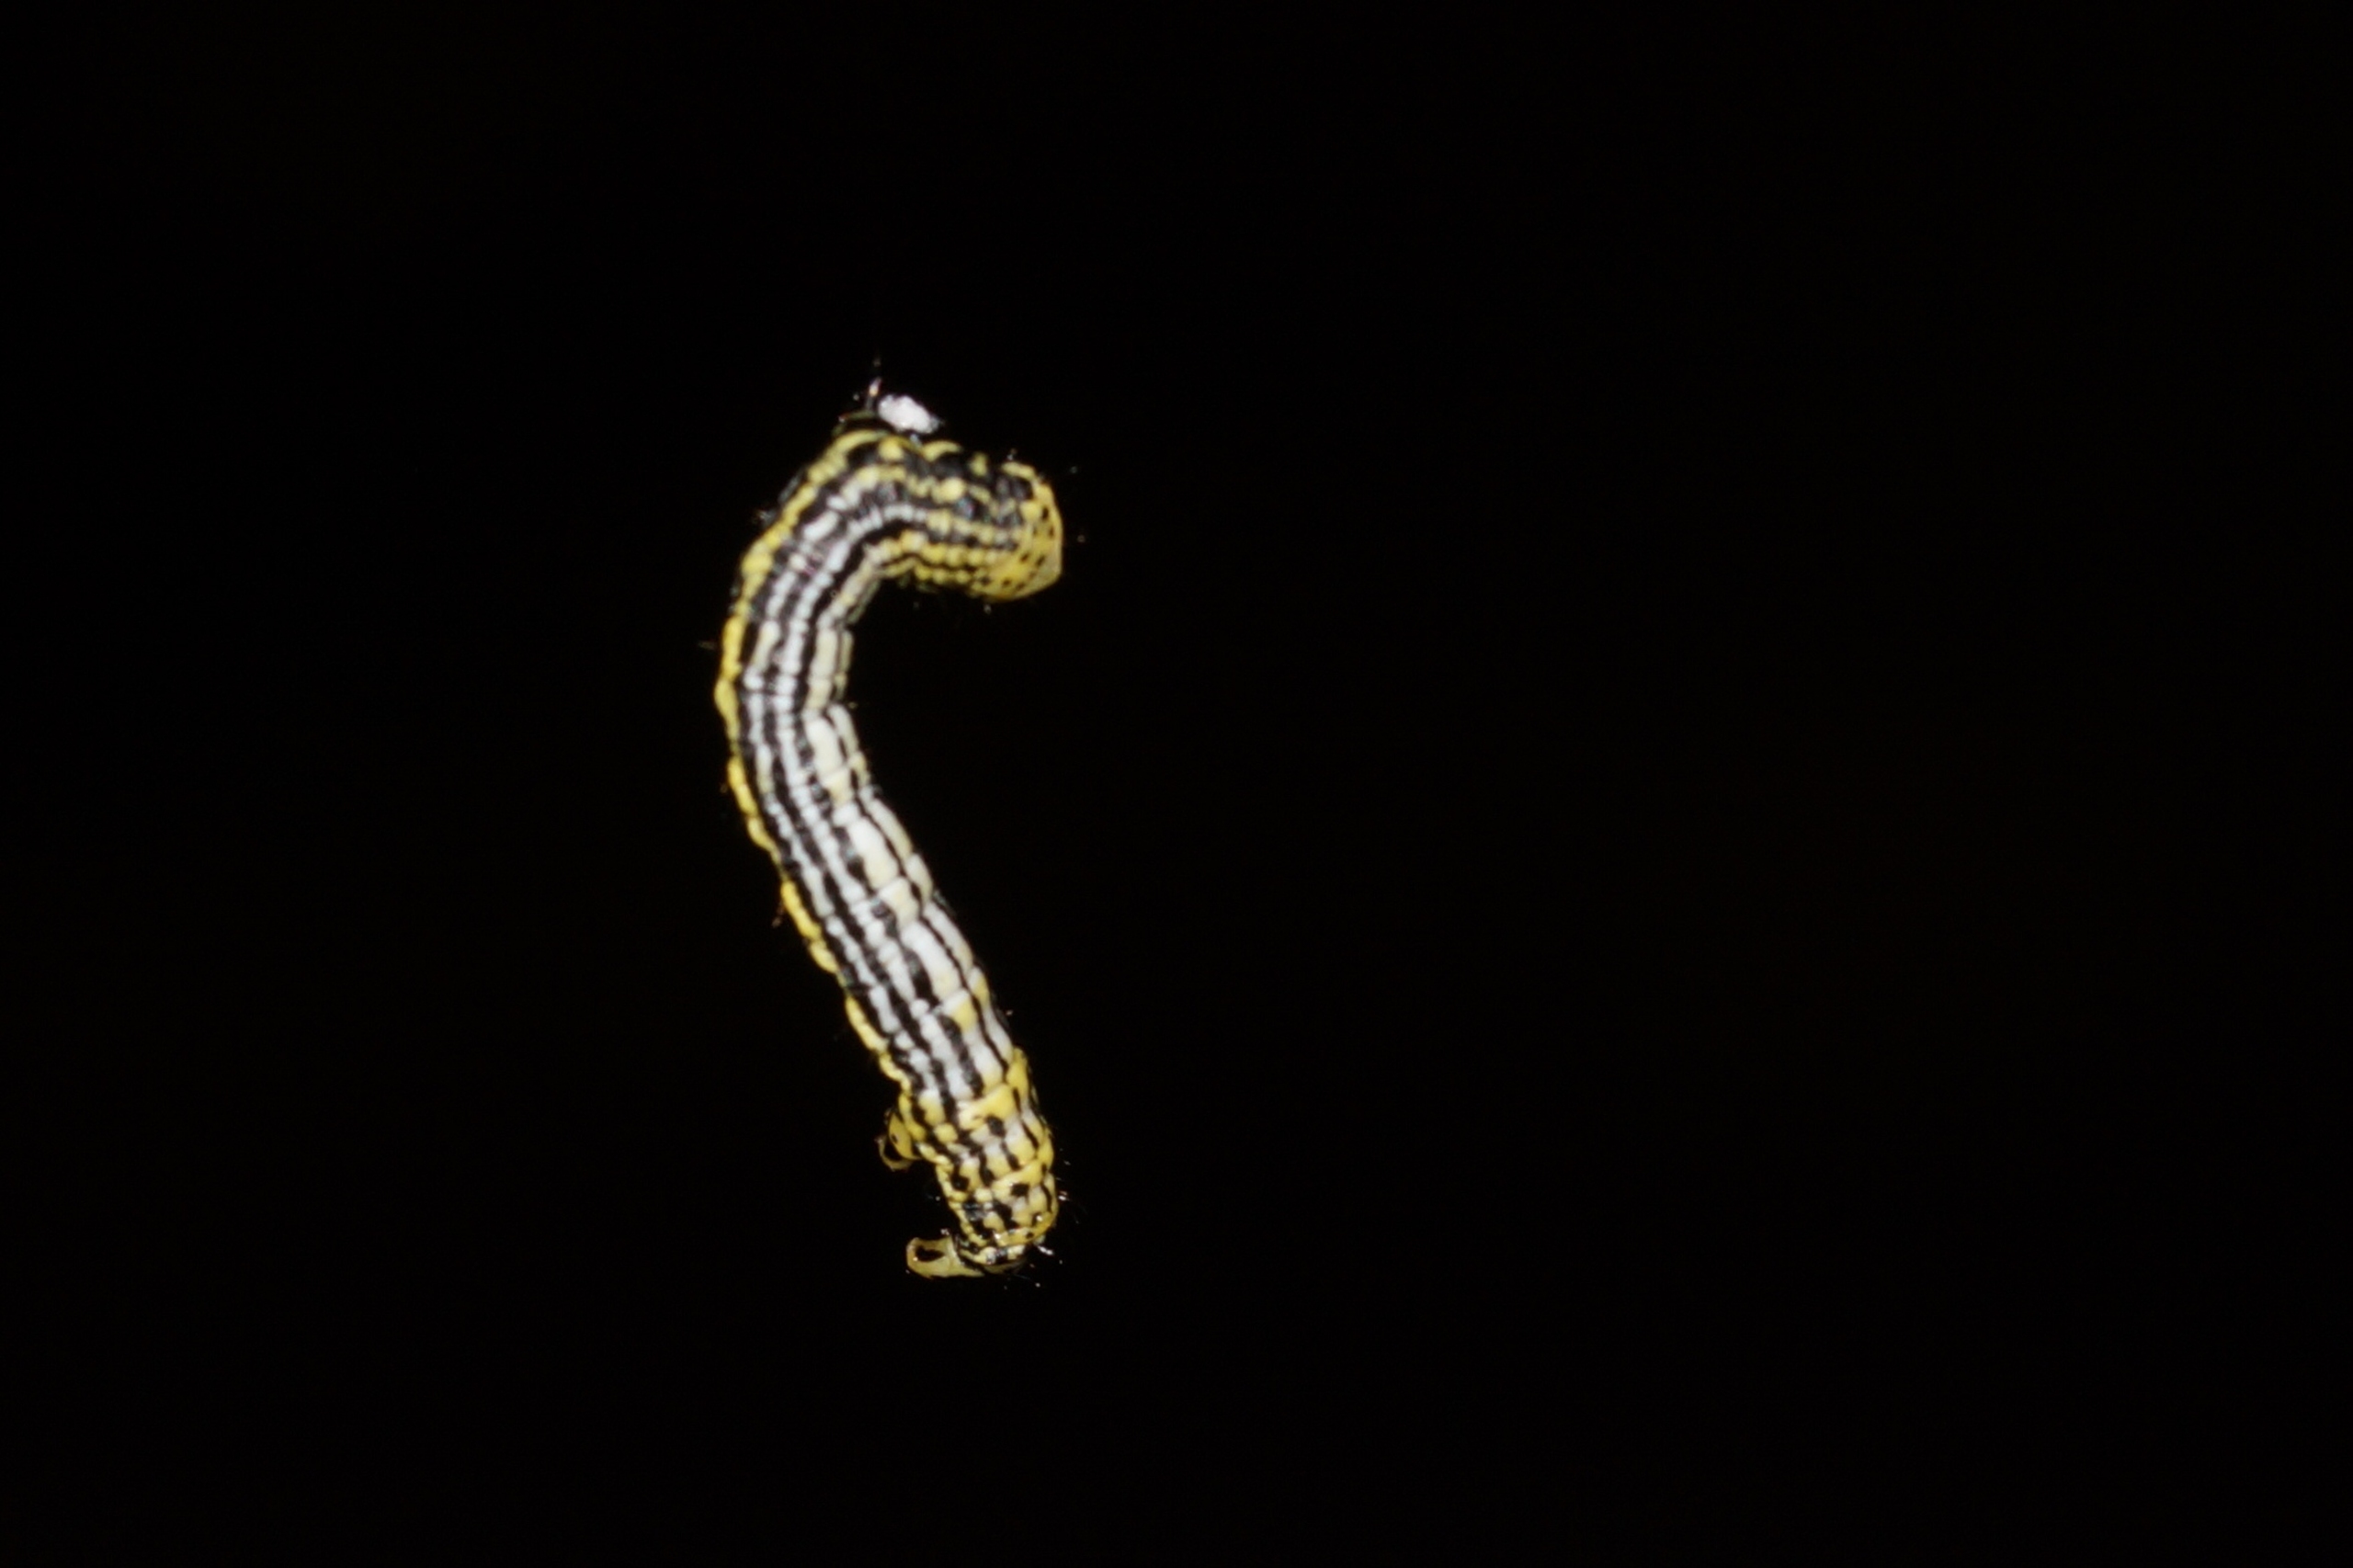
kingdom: Animalia
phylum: Arthropoda
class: Insecta
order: Lepidoptera
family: Geometridae
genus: Abraxas
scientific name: Abraxas sylvata
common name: Elmemåler
